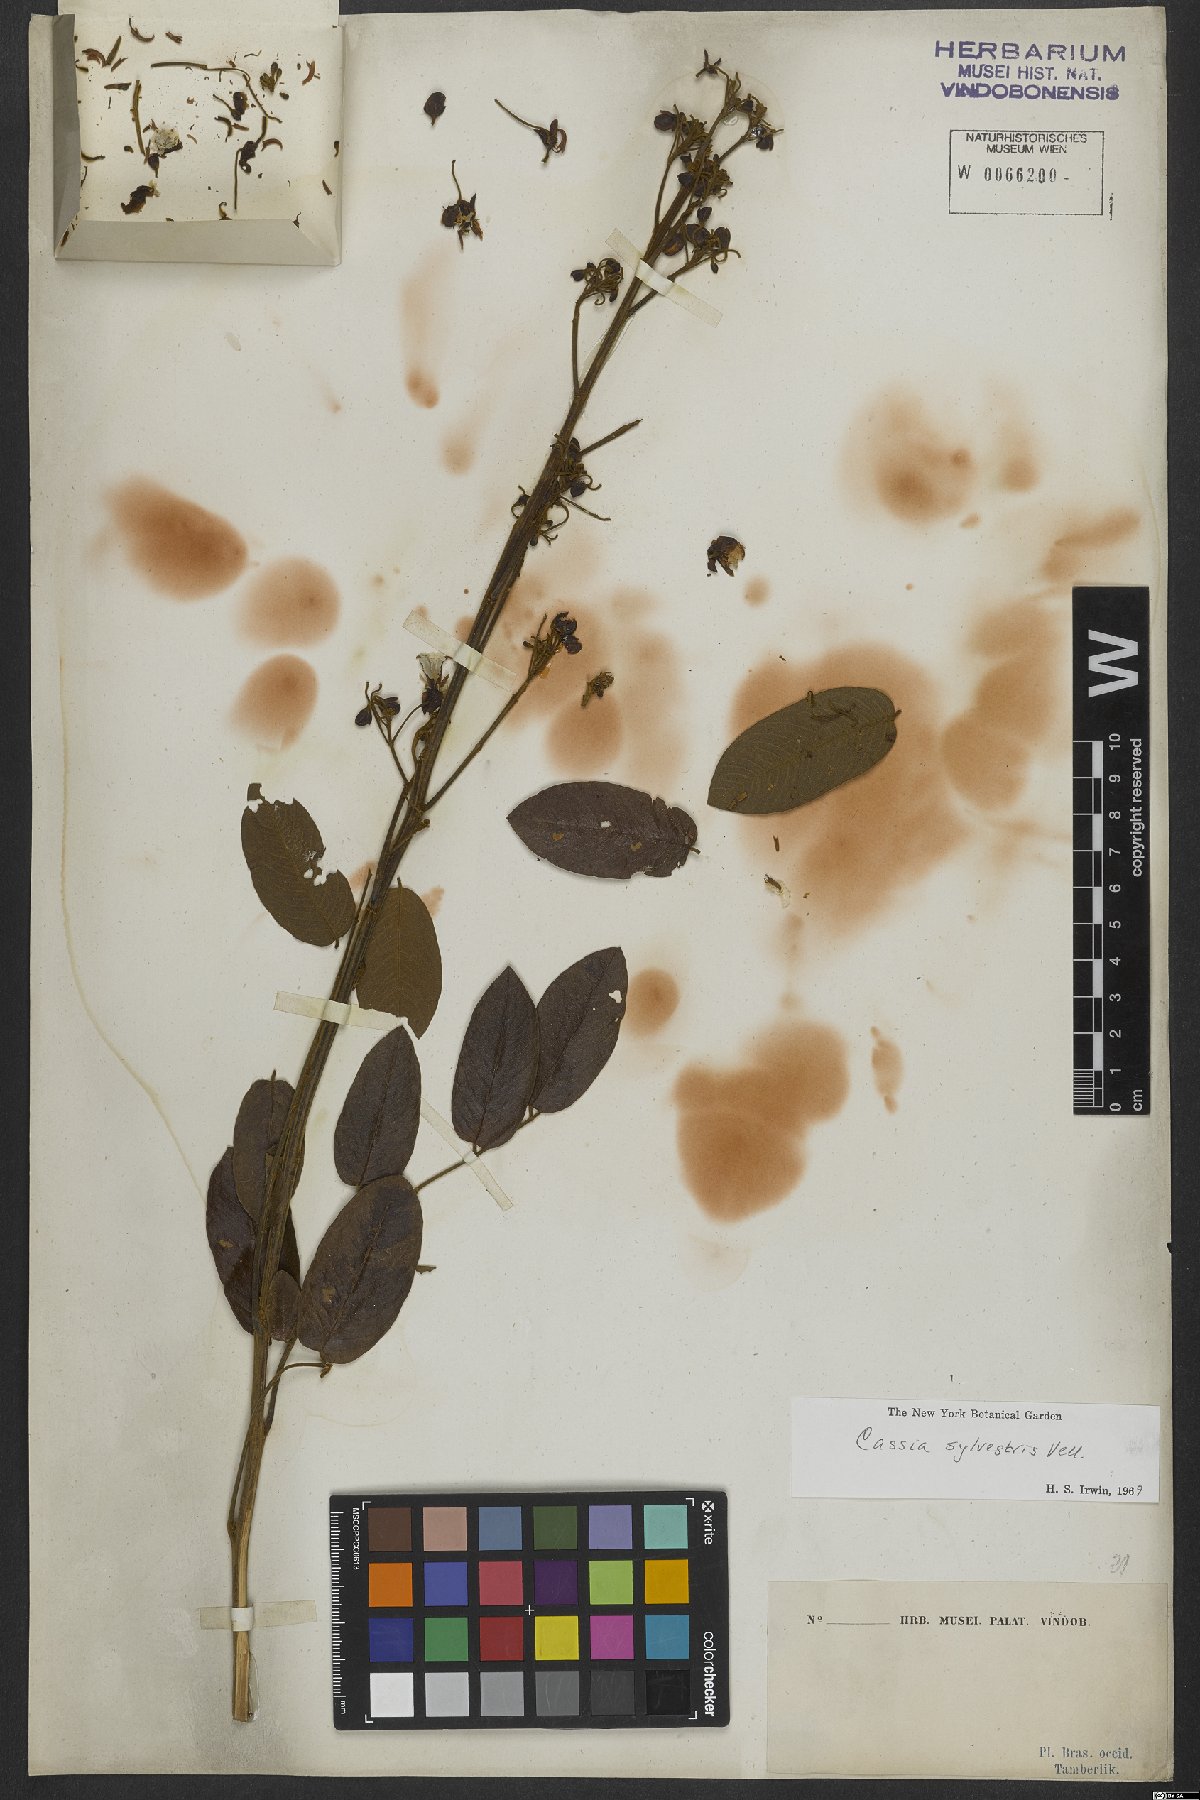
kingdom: Plantae
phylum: Tracheophyta
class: Magnoliopsida
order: Fabales
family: Fabaceae
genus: Senna
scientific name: Senna silvestris
